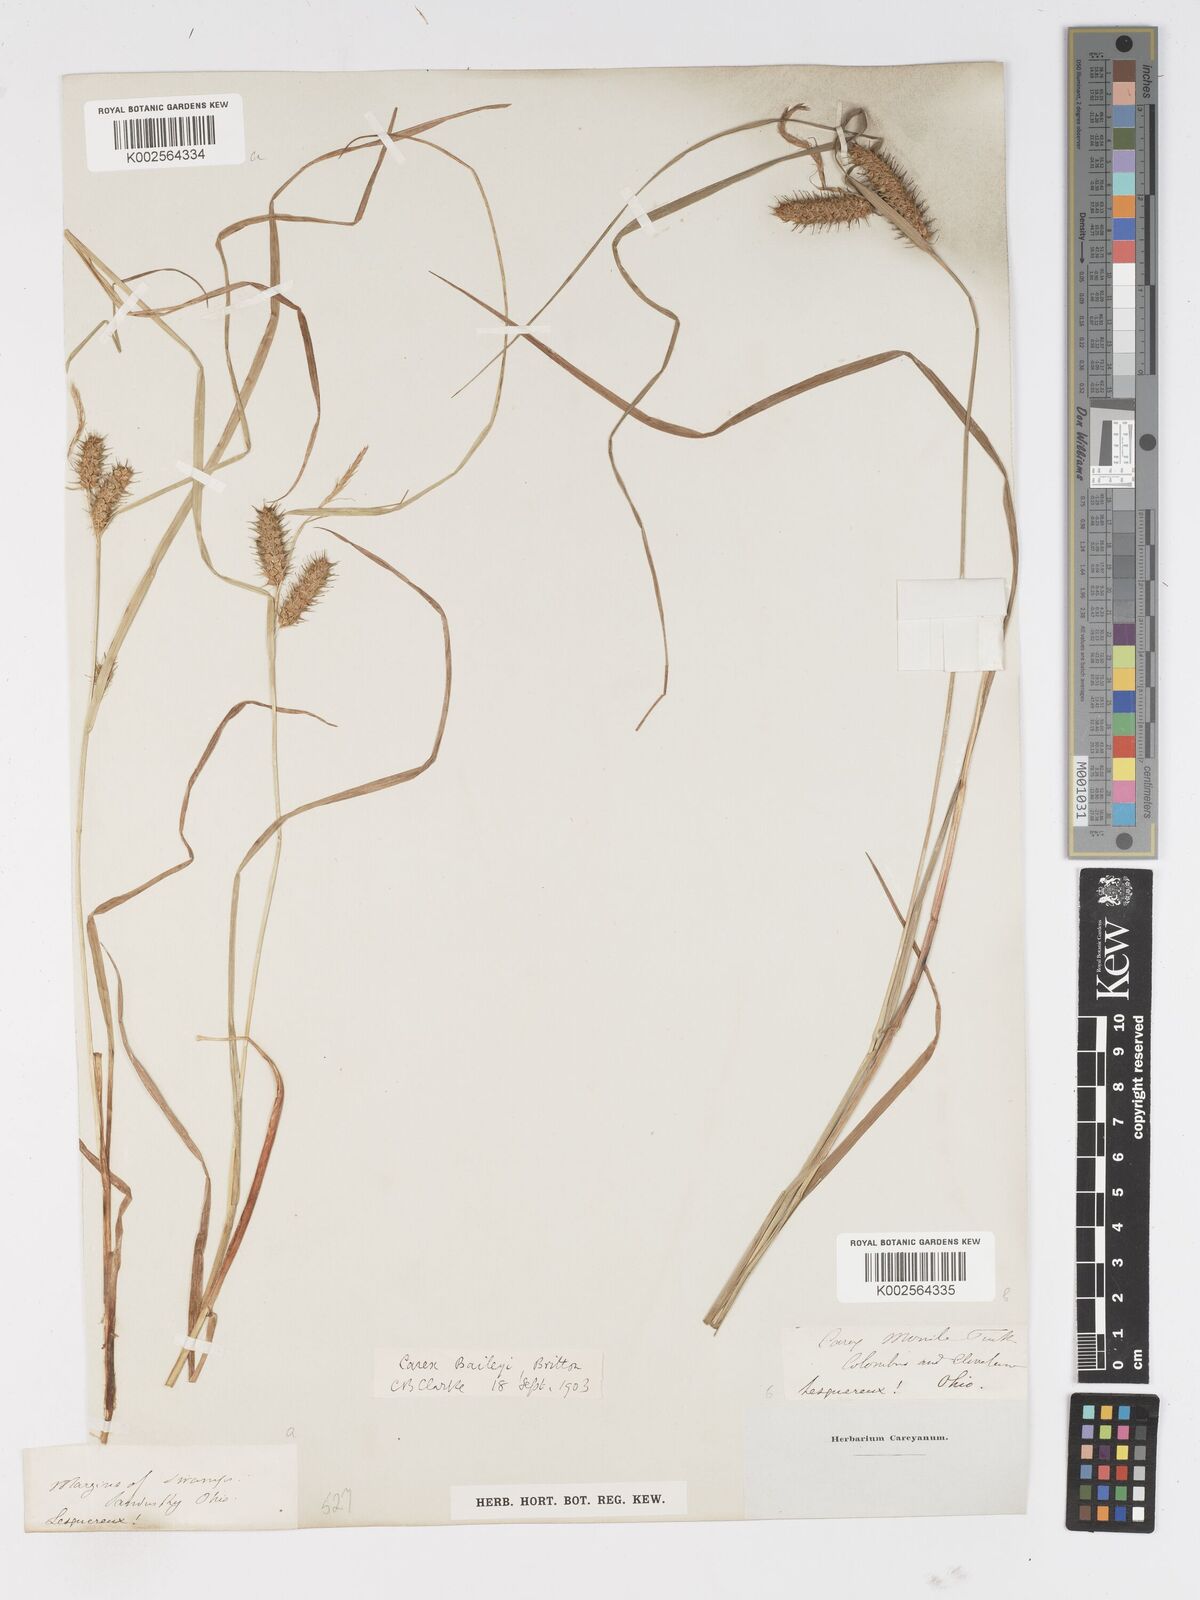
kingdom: Plantae
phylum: Tracheophyta
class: Liliopsida
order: Poales
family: Cyperaceae
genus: Carex
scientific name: Carex baileyi
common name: Bailey's sedge
